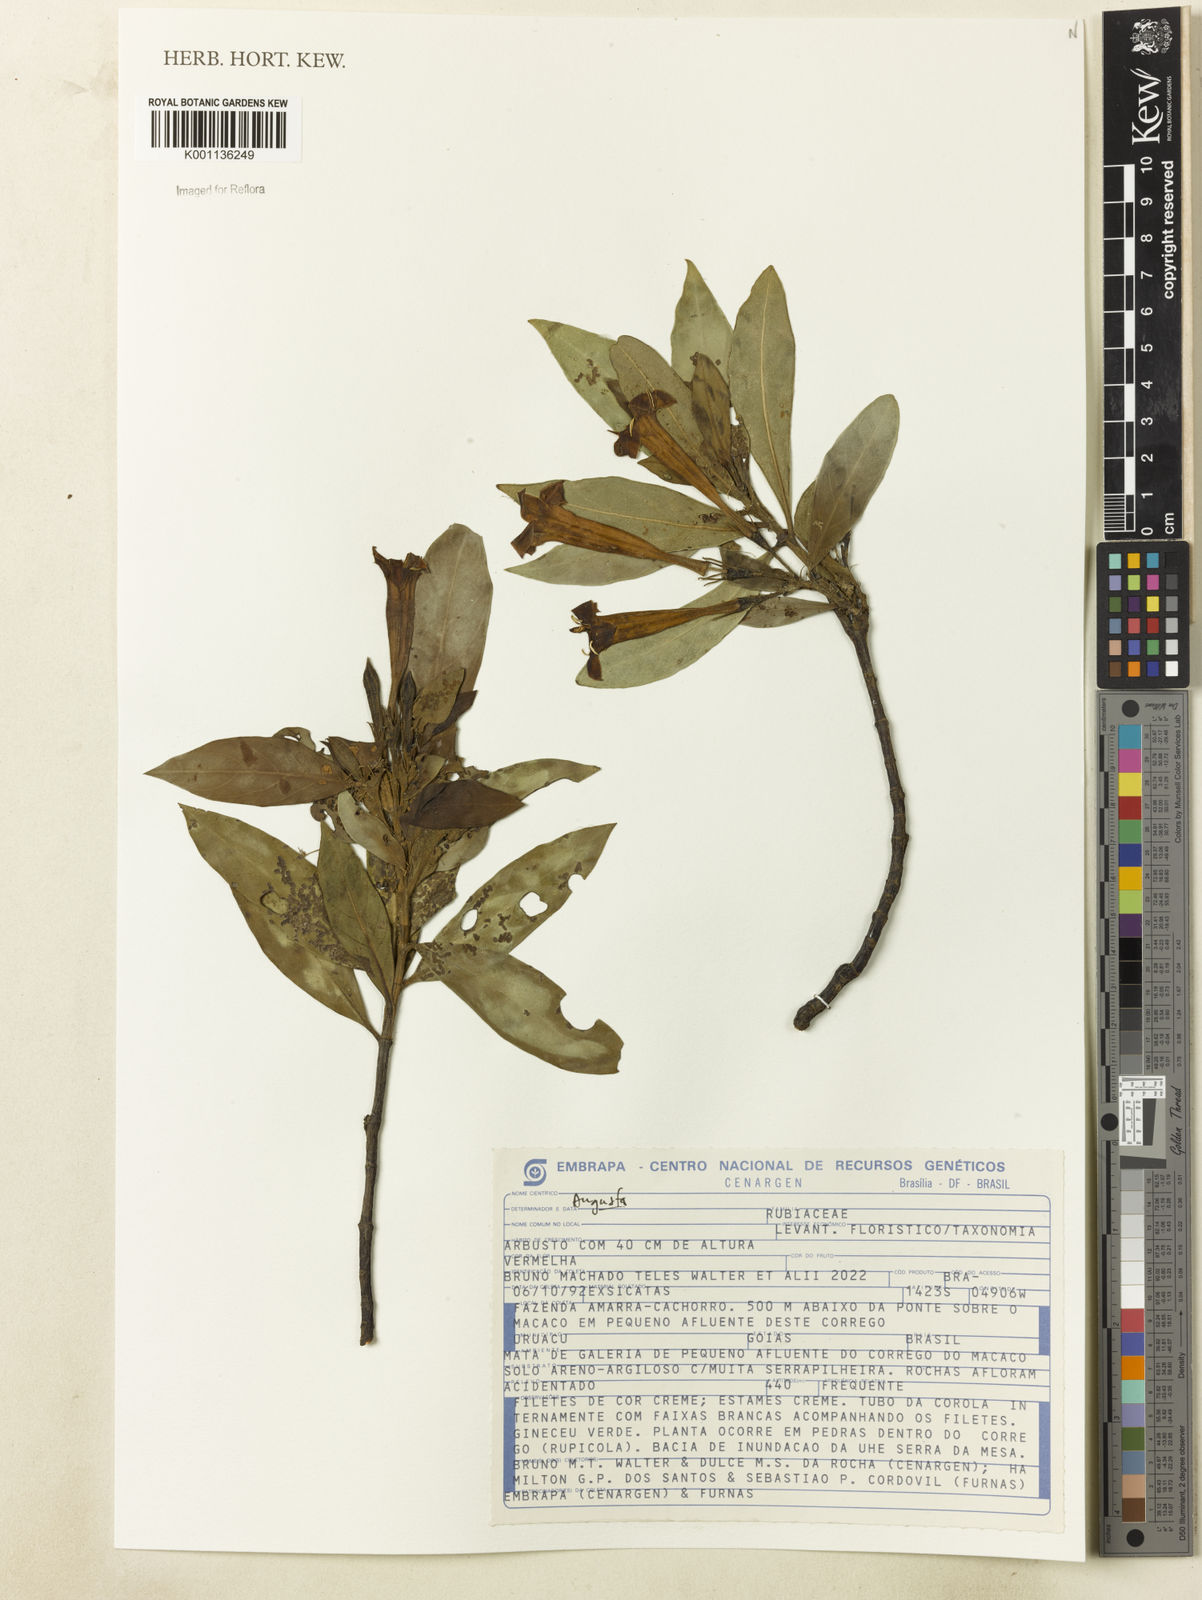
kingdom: Plantae
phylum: Tracheophyta
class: Magnoliopsida
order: Gentianales
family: Rubiaceae
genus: Augusta
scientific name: Augusta longifolia
